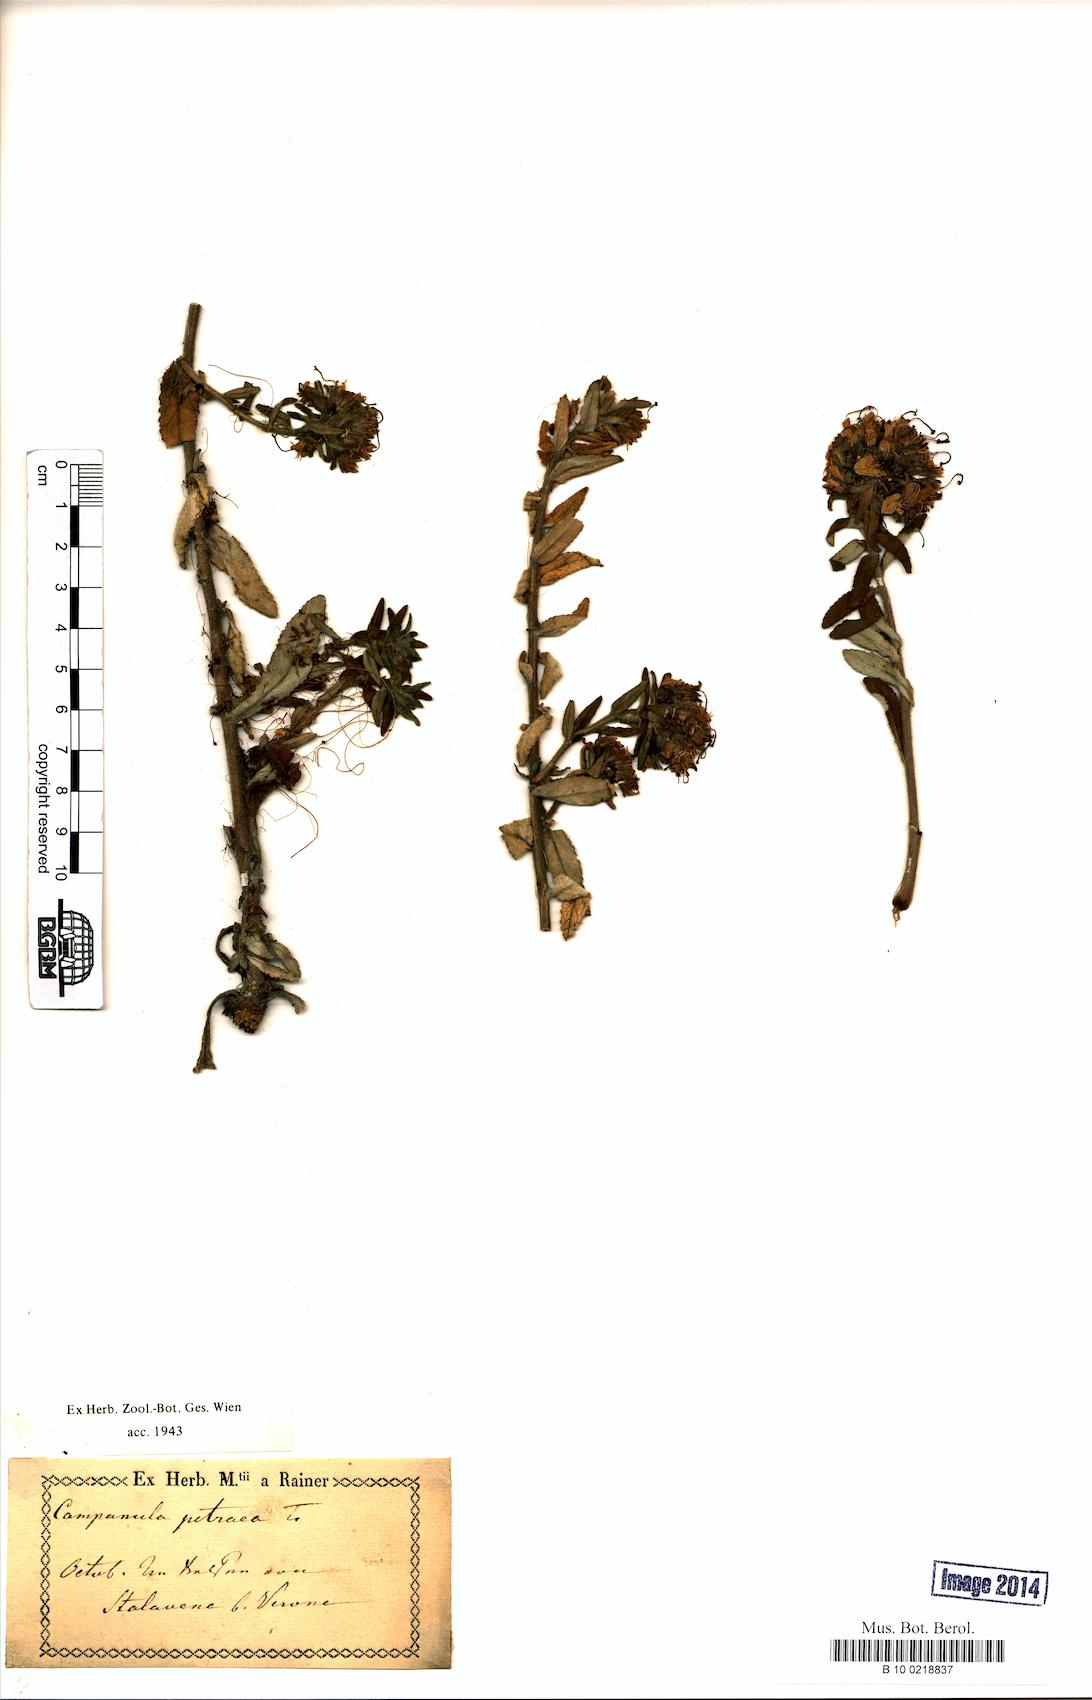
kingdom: Plantae
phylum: Tracheophyta
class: Magnoliopsida
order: Asterales
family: Campanulaceae
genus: Campanula
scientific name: Campanula petraea
